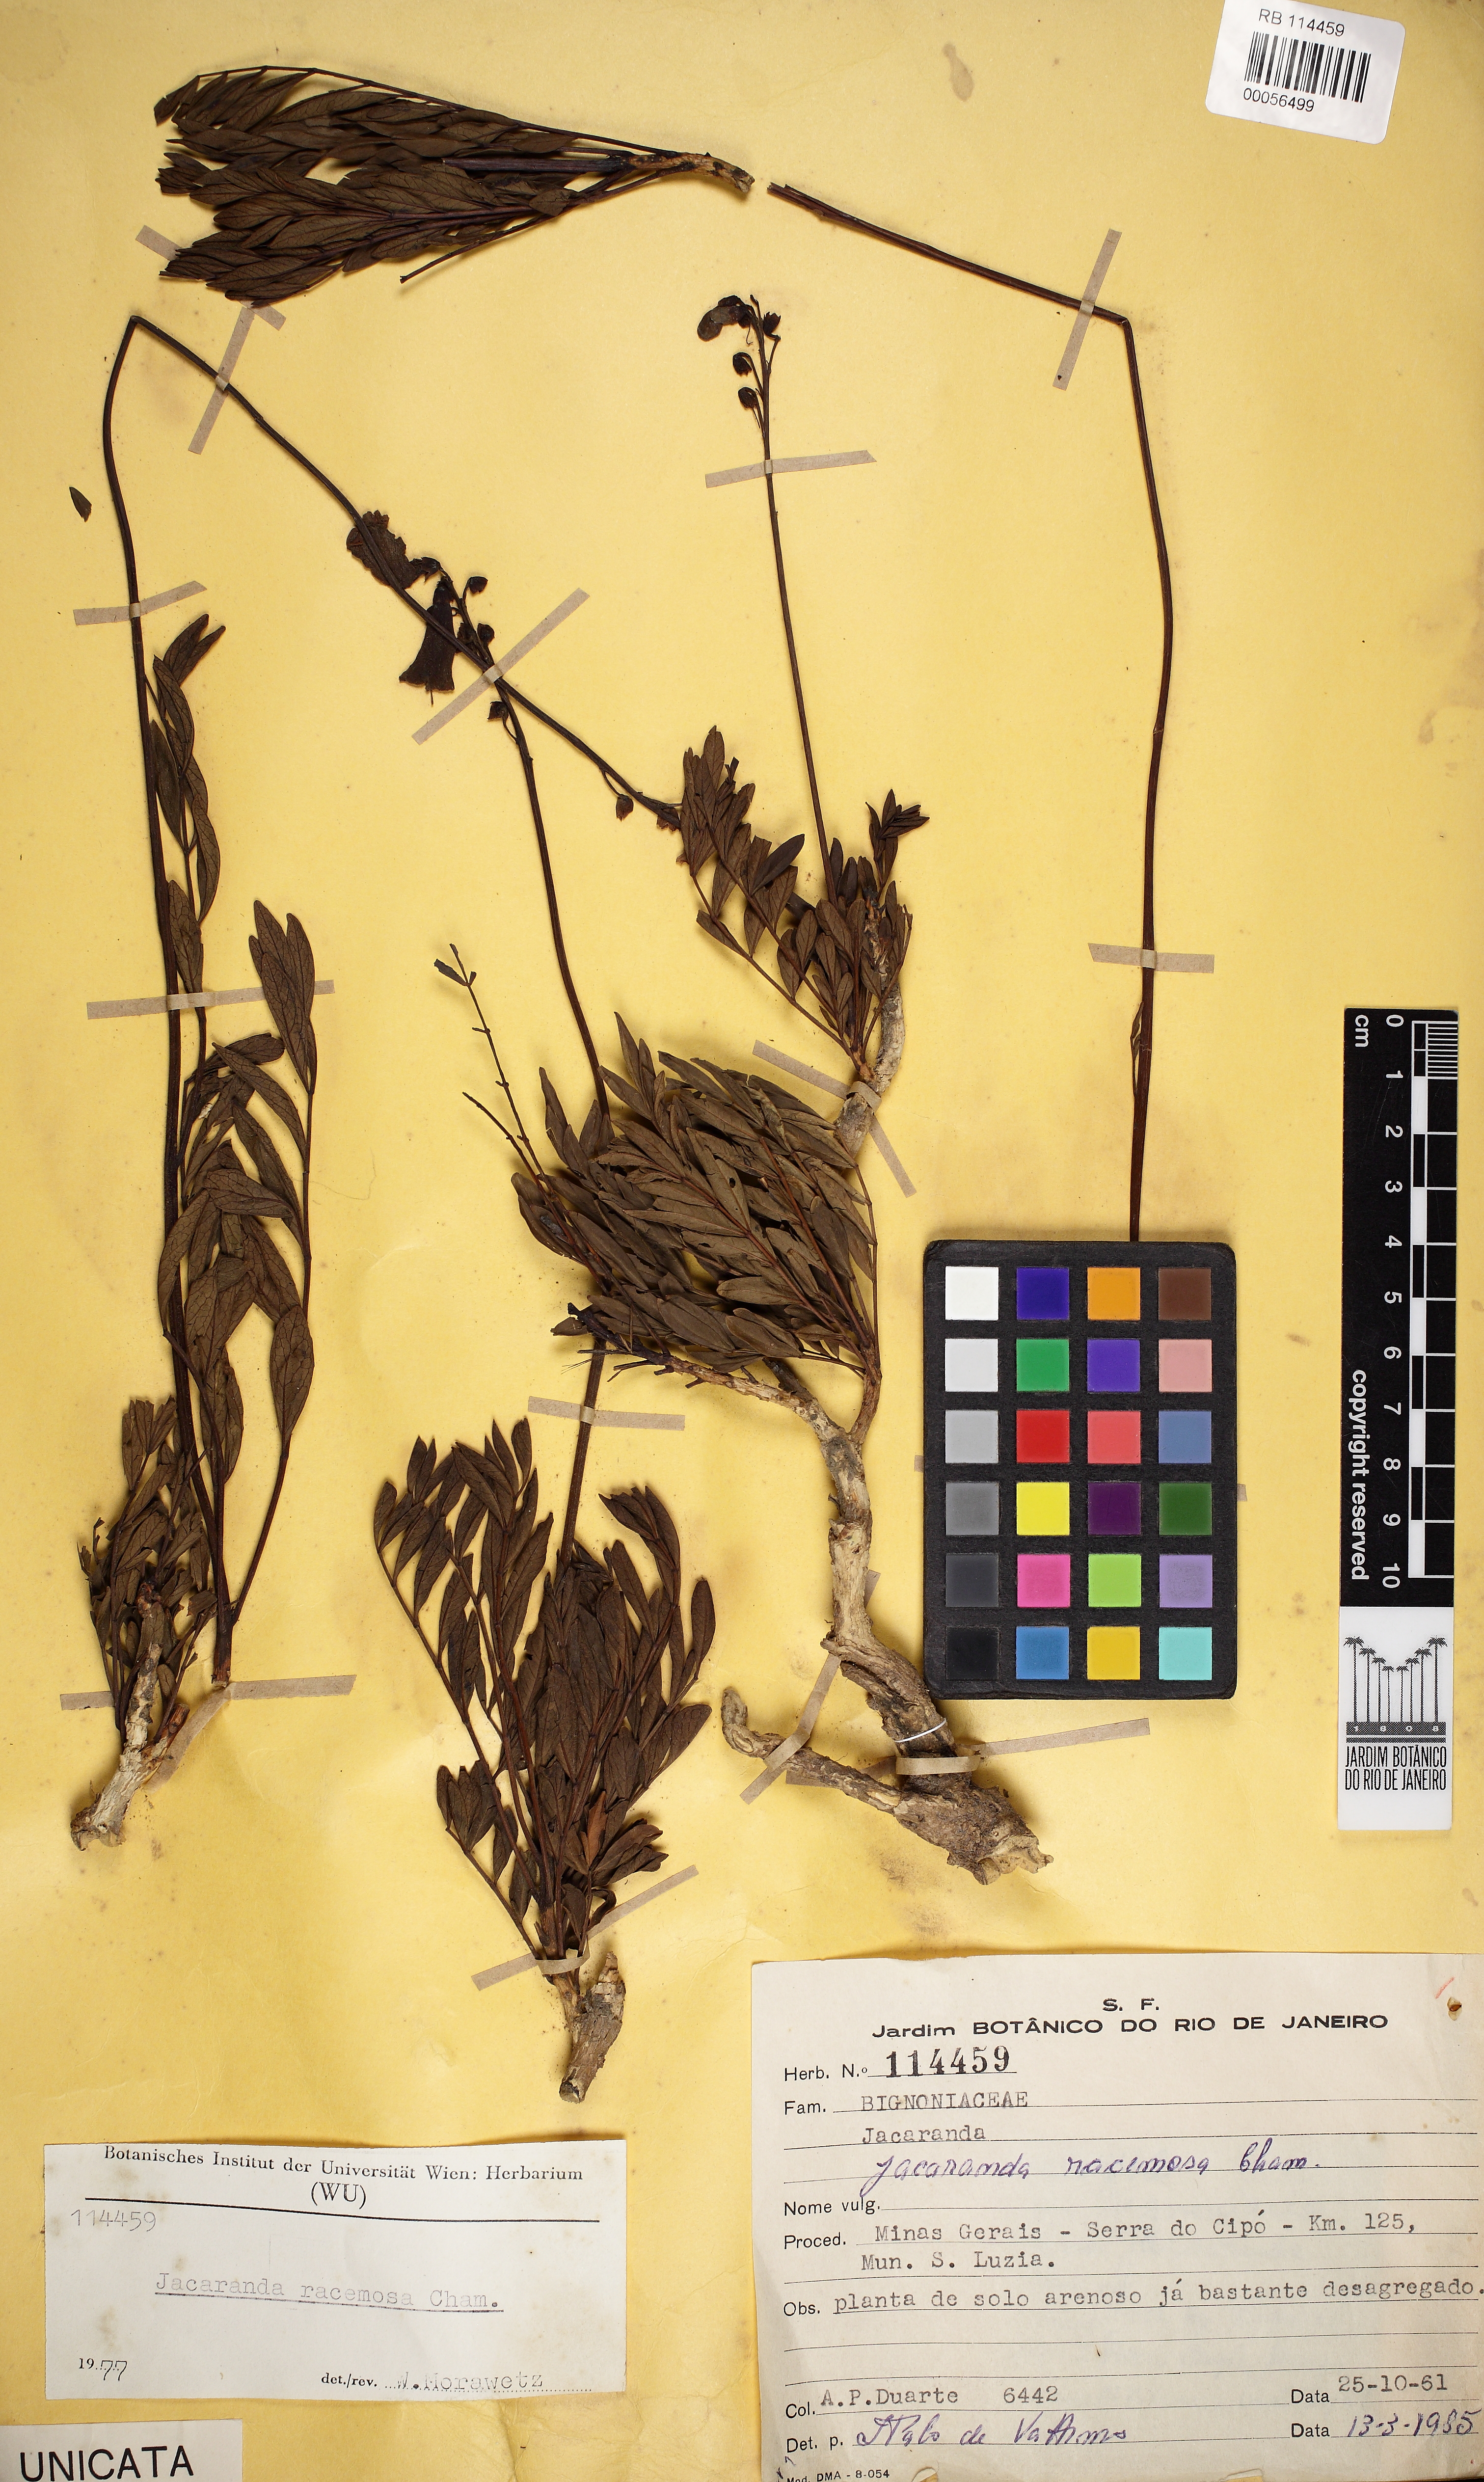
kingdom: Plantae
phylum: Tracheophyta
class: Magnoliopsida
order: Lamiales
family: Bignoniaceae
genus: Jacaranda
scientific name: Jacaranda racemosa
